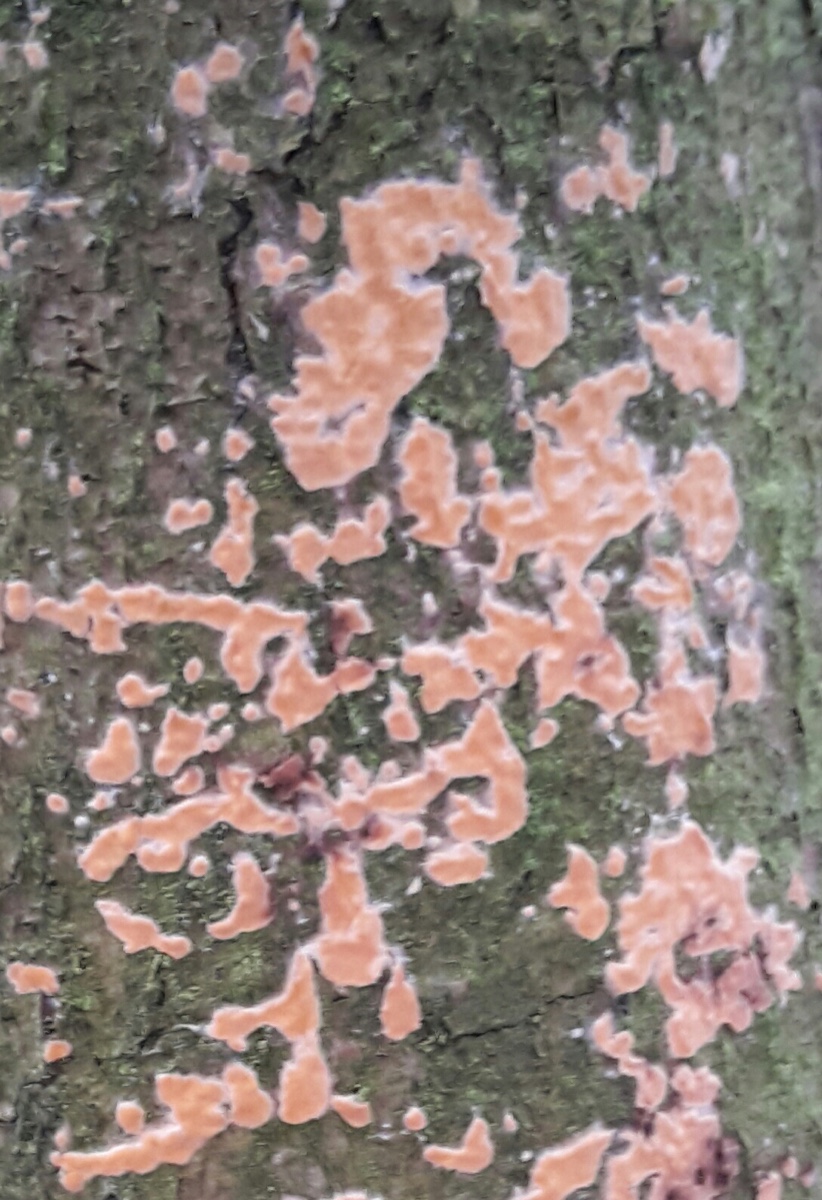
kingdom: Fungi
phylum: Basidiomycota
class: Agaricomycetes
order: Russulales
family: Peniophoraceae
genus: Peniophora
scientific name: Peniophora incarnata
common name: laksefarvet voksskind
